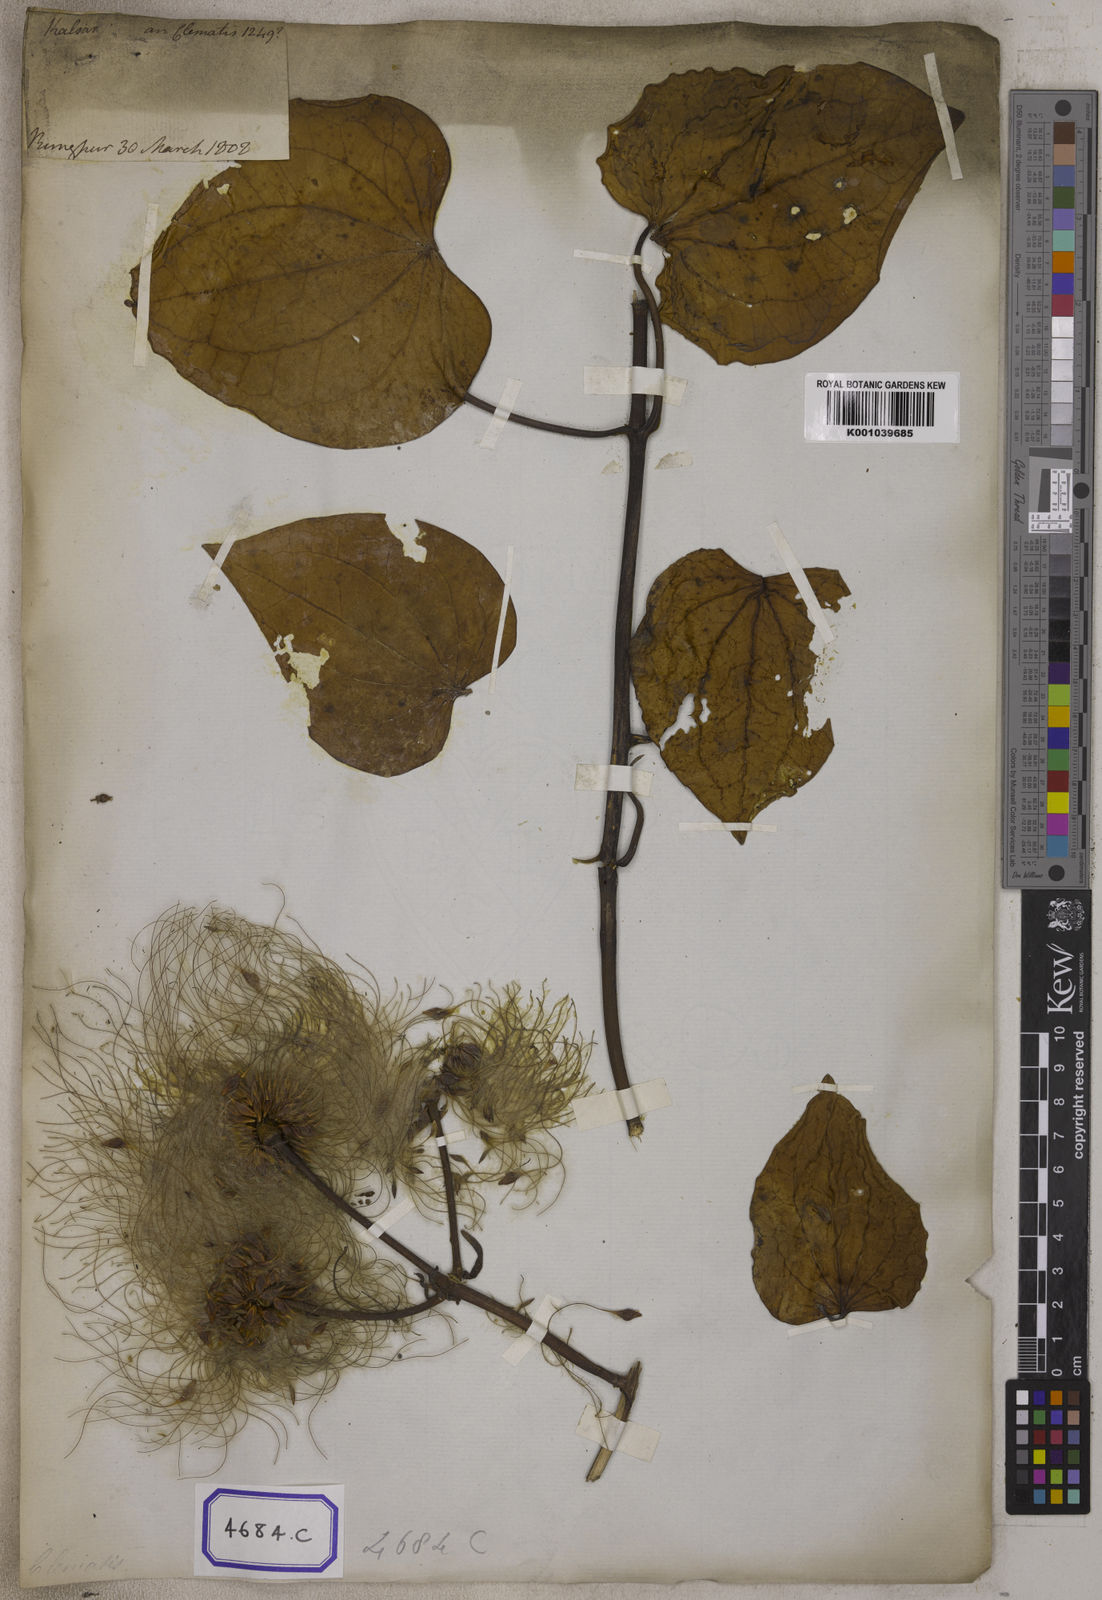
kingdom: Plantae
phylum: Tracheophyta
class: Magnoliopsida
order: Ranunculales
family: Ranunculaceae
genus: Clematis
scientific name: Clematis smilacifolia
